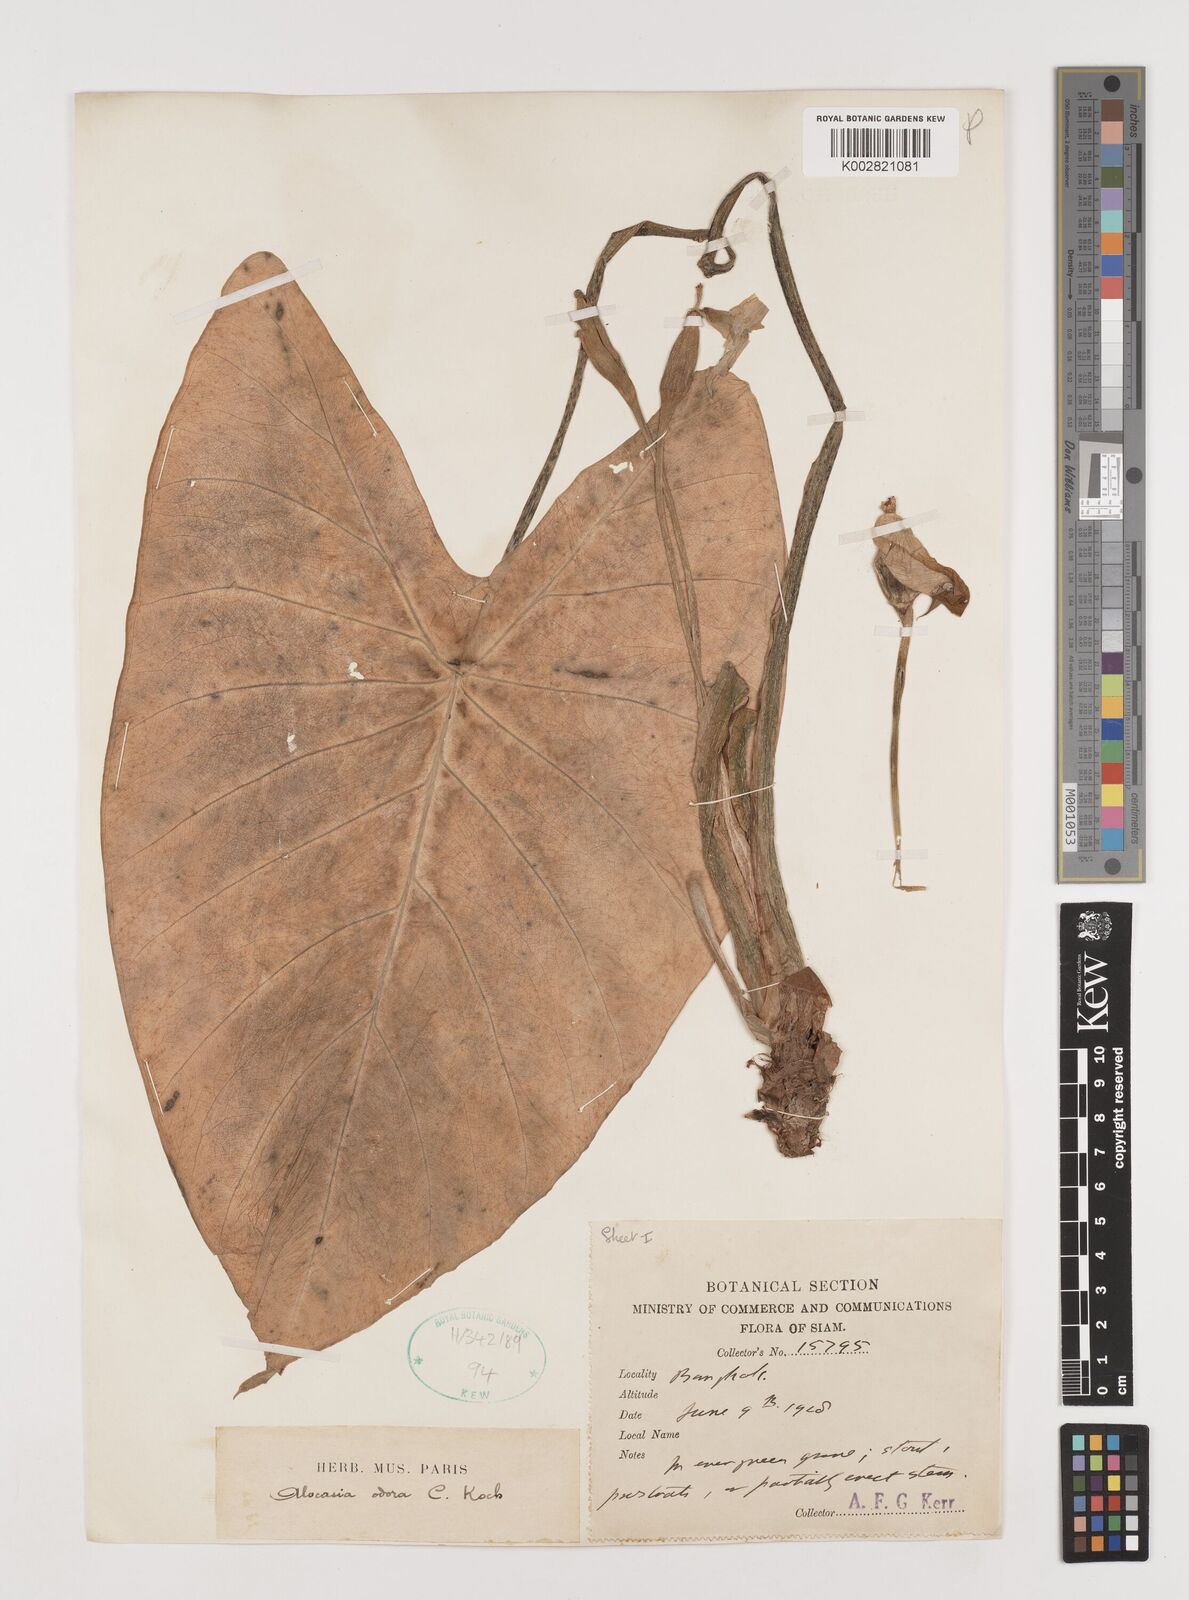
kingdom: Plantae
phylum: Tracheophyta
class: Liliopsida
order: Alismatales
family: Araceae
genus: Alocasia
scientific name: Alocasia
